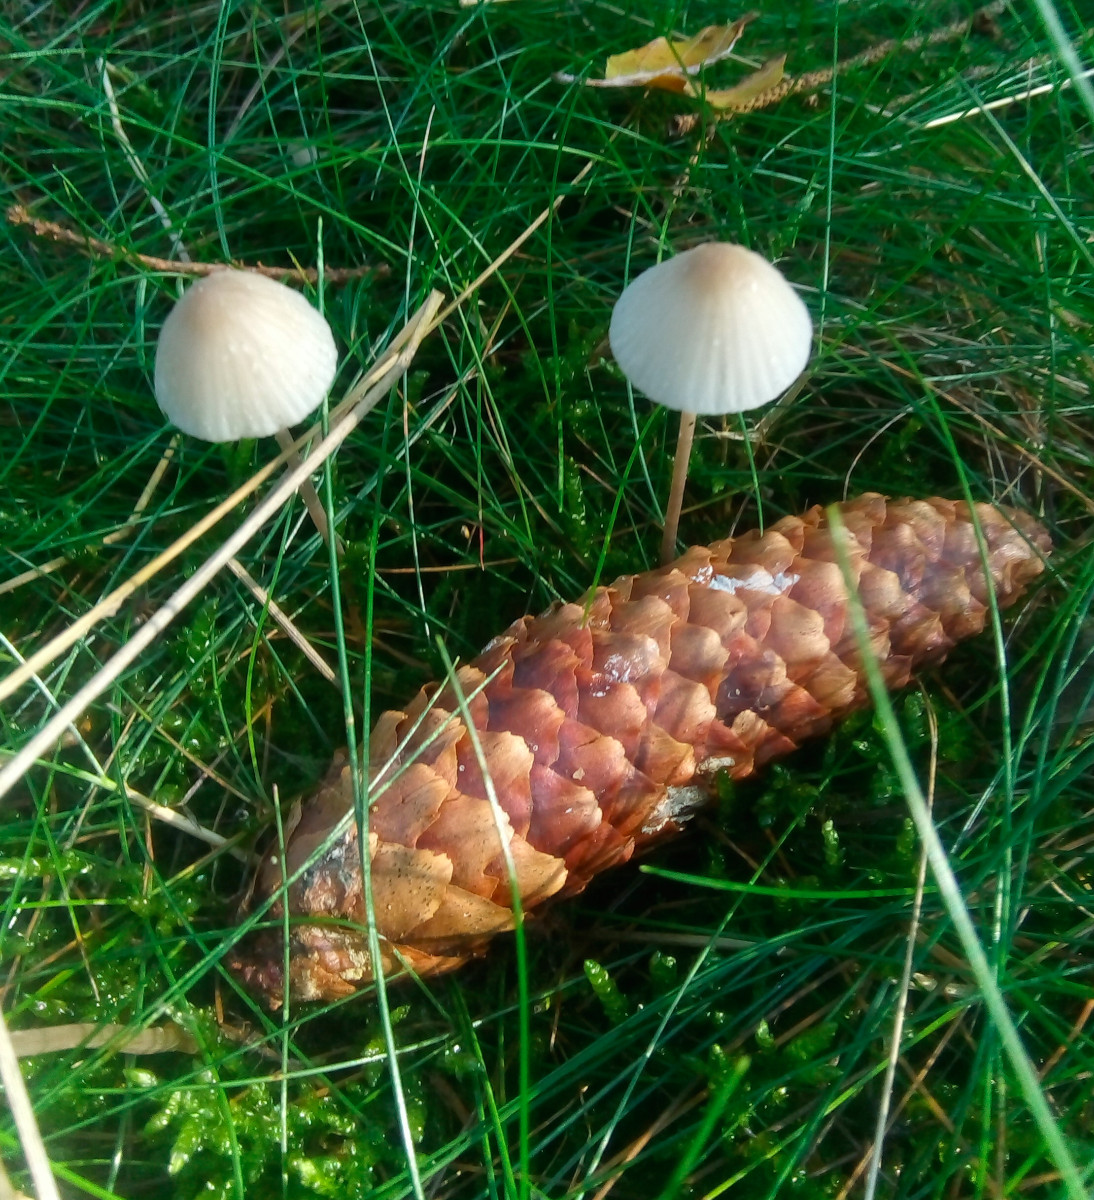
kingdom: Fungi
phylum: Basidiomycota
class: Agaricomycetes
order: Agaricales
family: Mycenaceae
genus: Mycena
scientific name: Mycena galopus
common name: hvidmælket huesvamp
